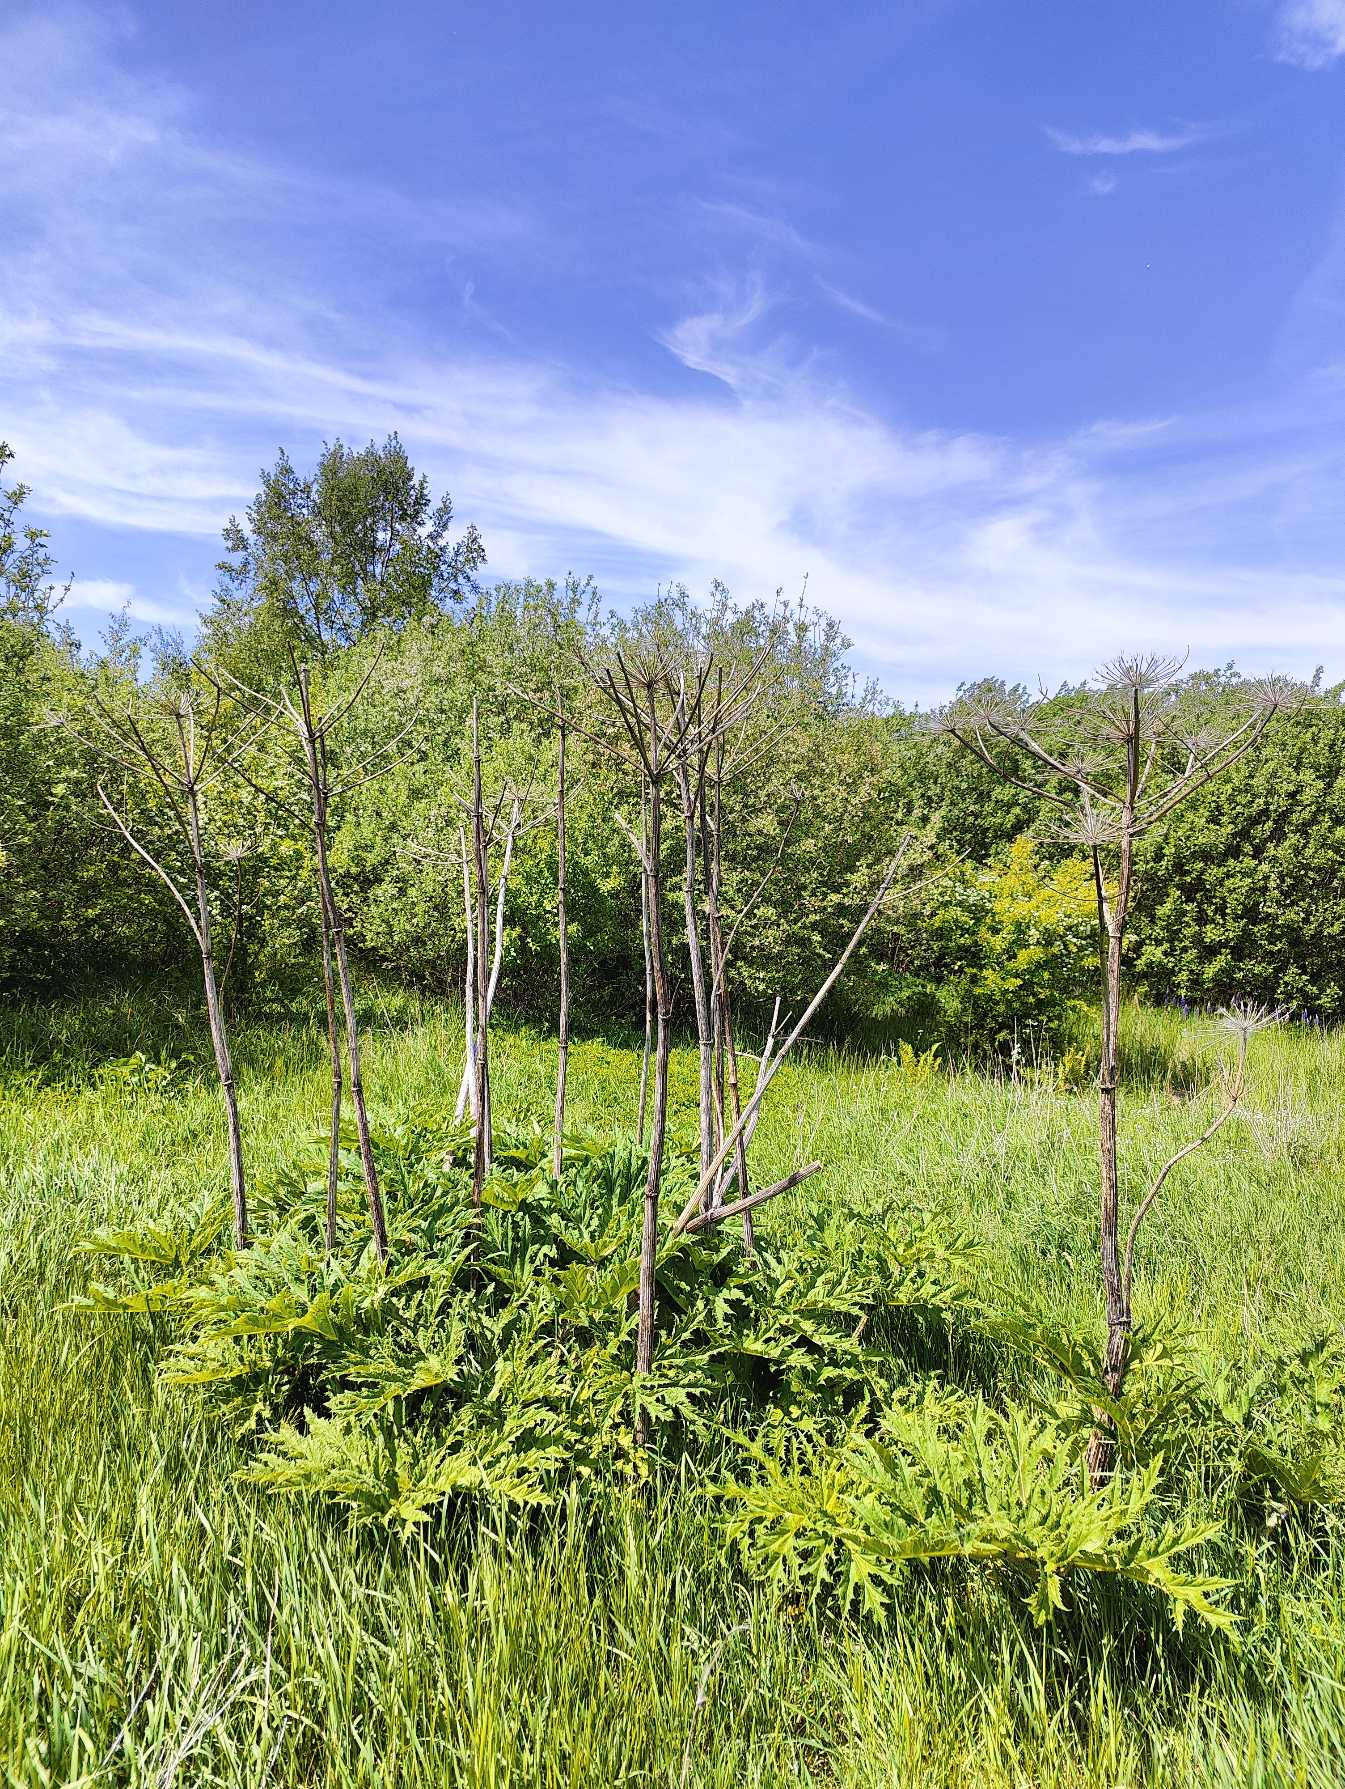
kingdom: Plantae
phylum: Tracheophyta
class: Magnoliopsida
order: Apiales
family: Apiaceae
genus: Heracleum
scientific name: Heracleum mantegazzianum
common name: Kæmpe-bjørneklo
